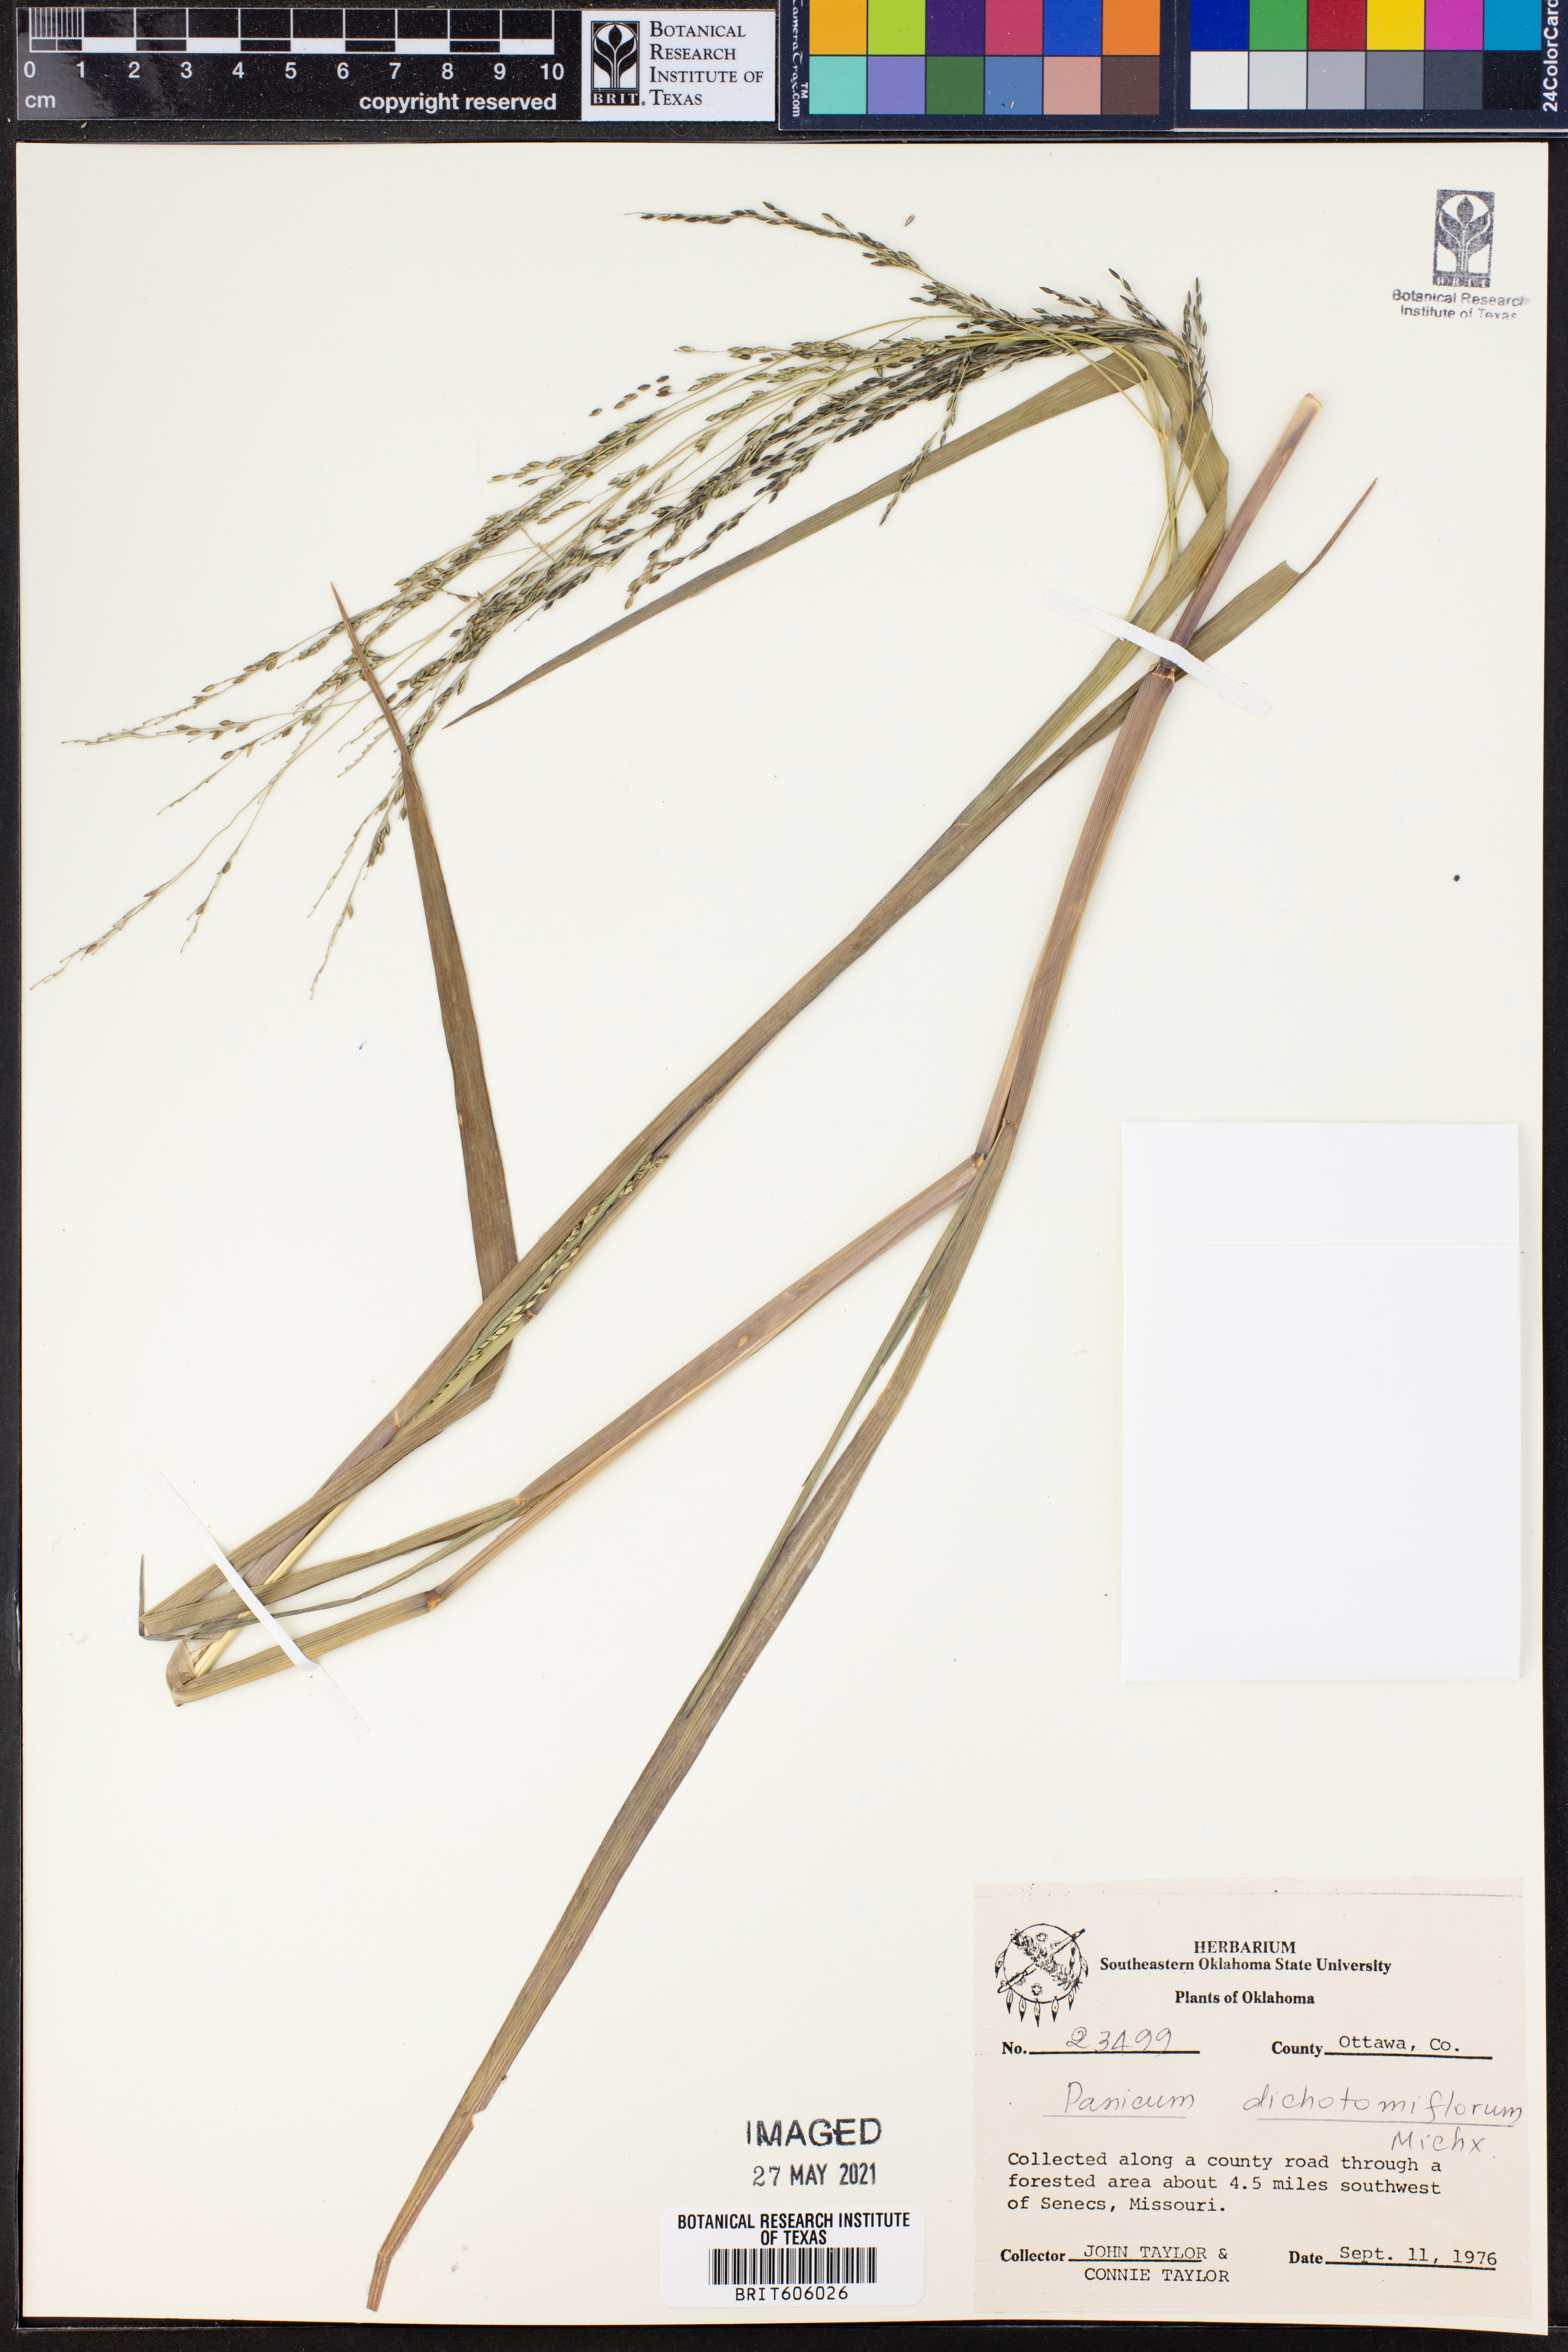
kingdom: Plantae
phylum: Tracheophyta
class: Liliopsida
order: Poales
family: Poaceae
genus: Panicum
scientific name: Panicum dichotomiflorum
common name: Autumn millet
